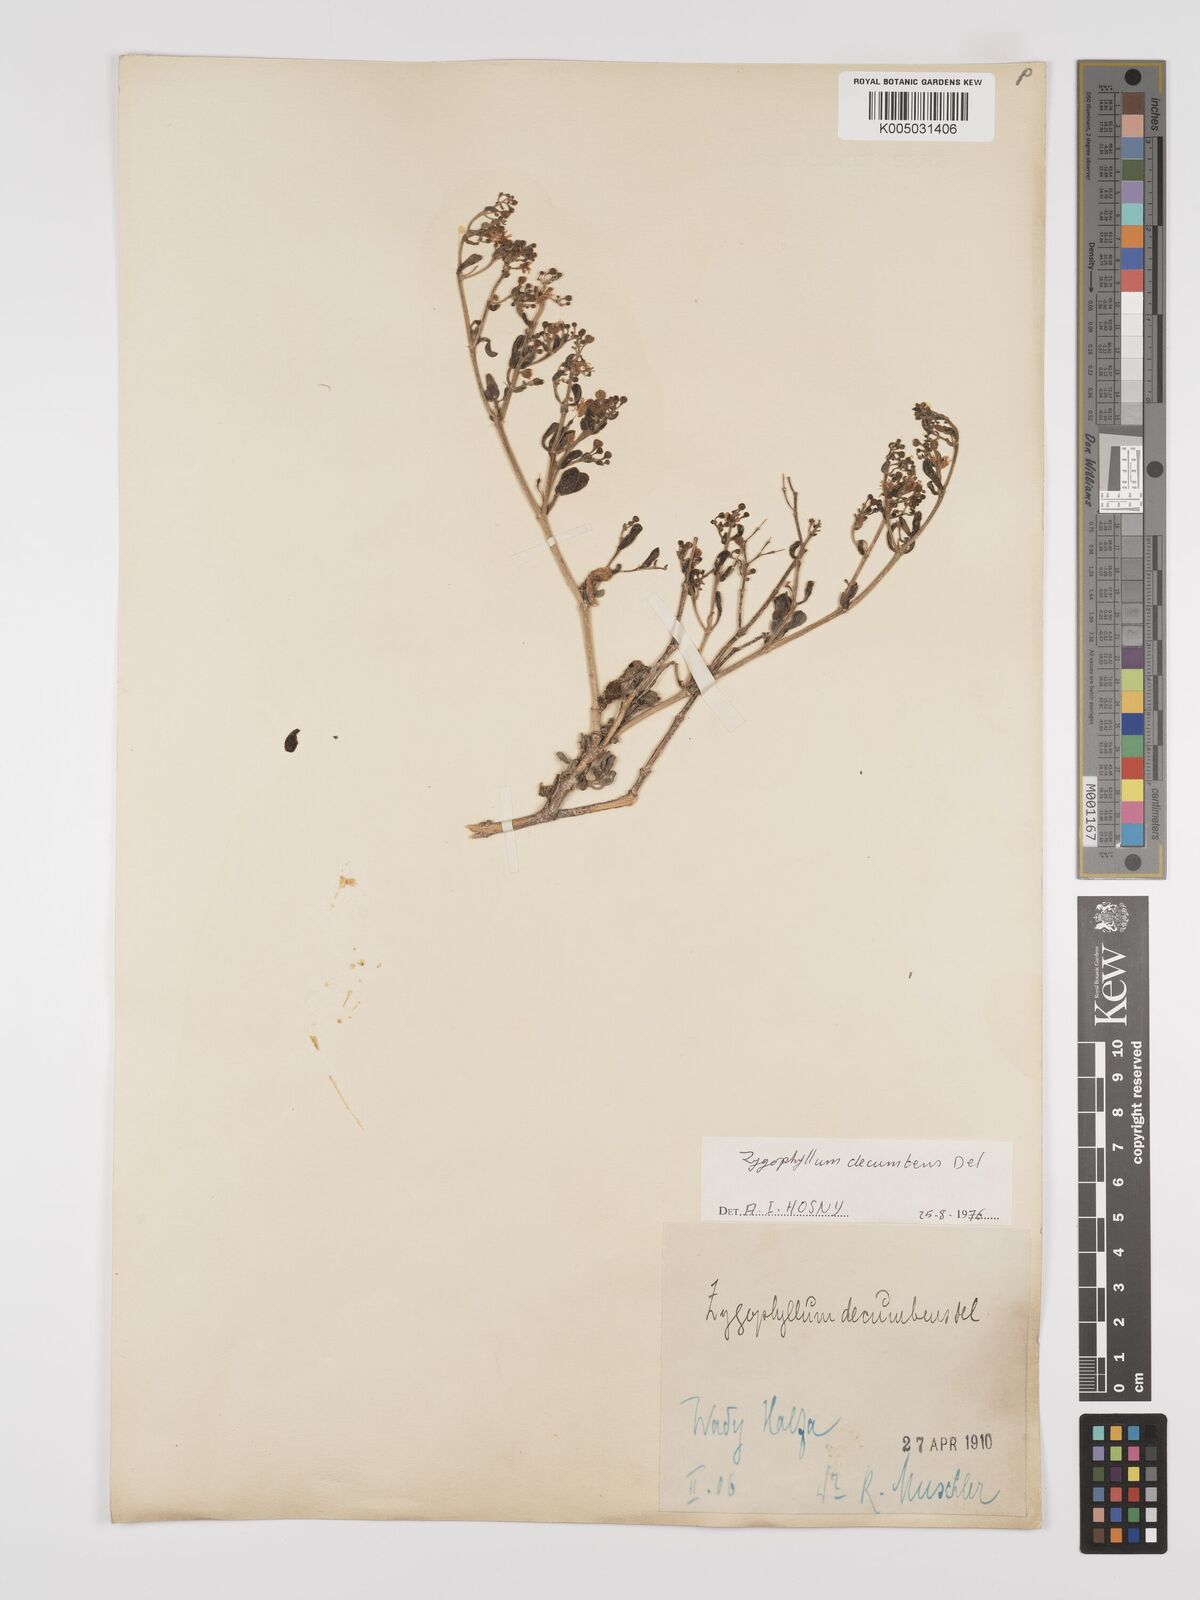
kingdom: Plantae
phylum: Tracheophyta
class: Magnoliopsida
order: Zygophyllales
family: Zygophyllaceae
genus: Tetraena
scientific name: Tetraena decumbens
